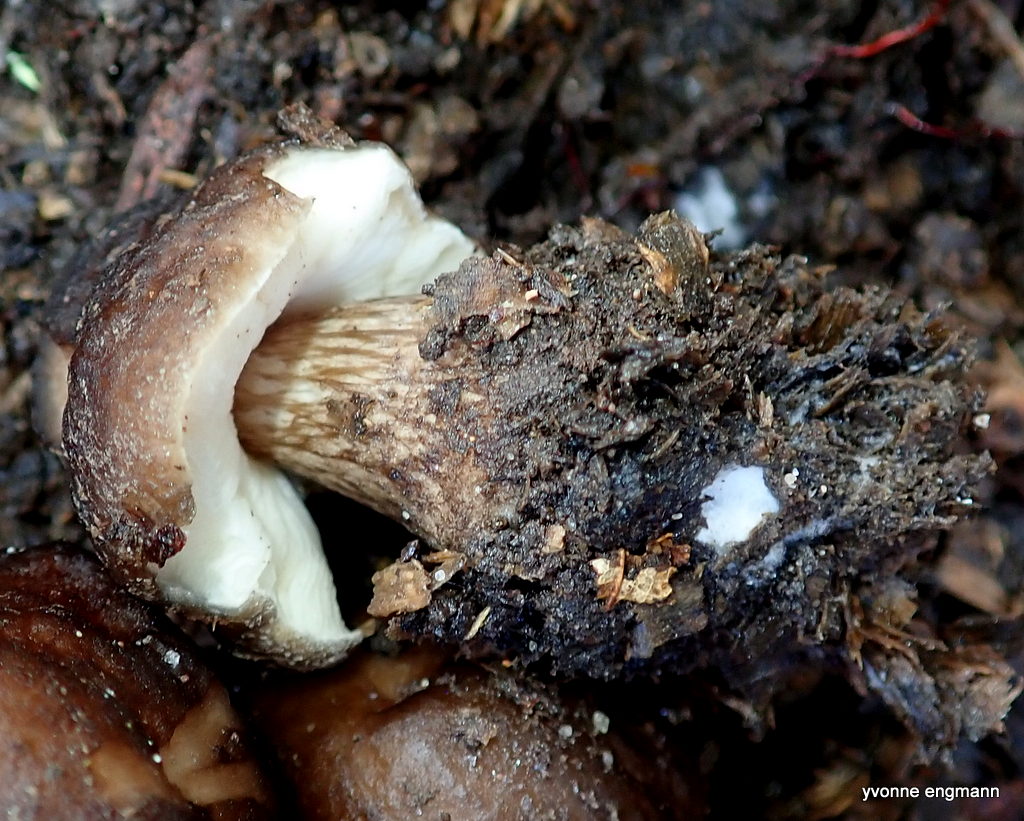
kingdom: Fungi
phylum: Basidiomycota
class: Agaricomycetes
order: Agaricales
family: Pluteaceae
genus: Pluteus
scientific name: Pluteus cervinus
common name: sodfarvet skærmhat
